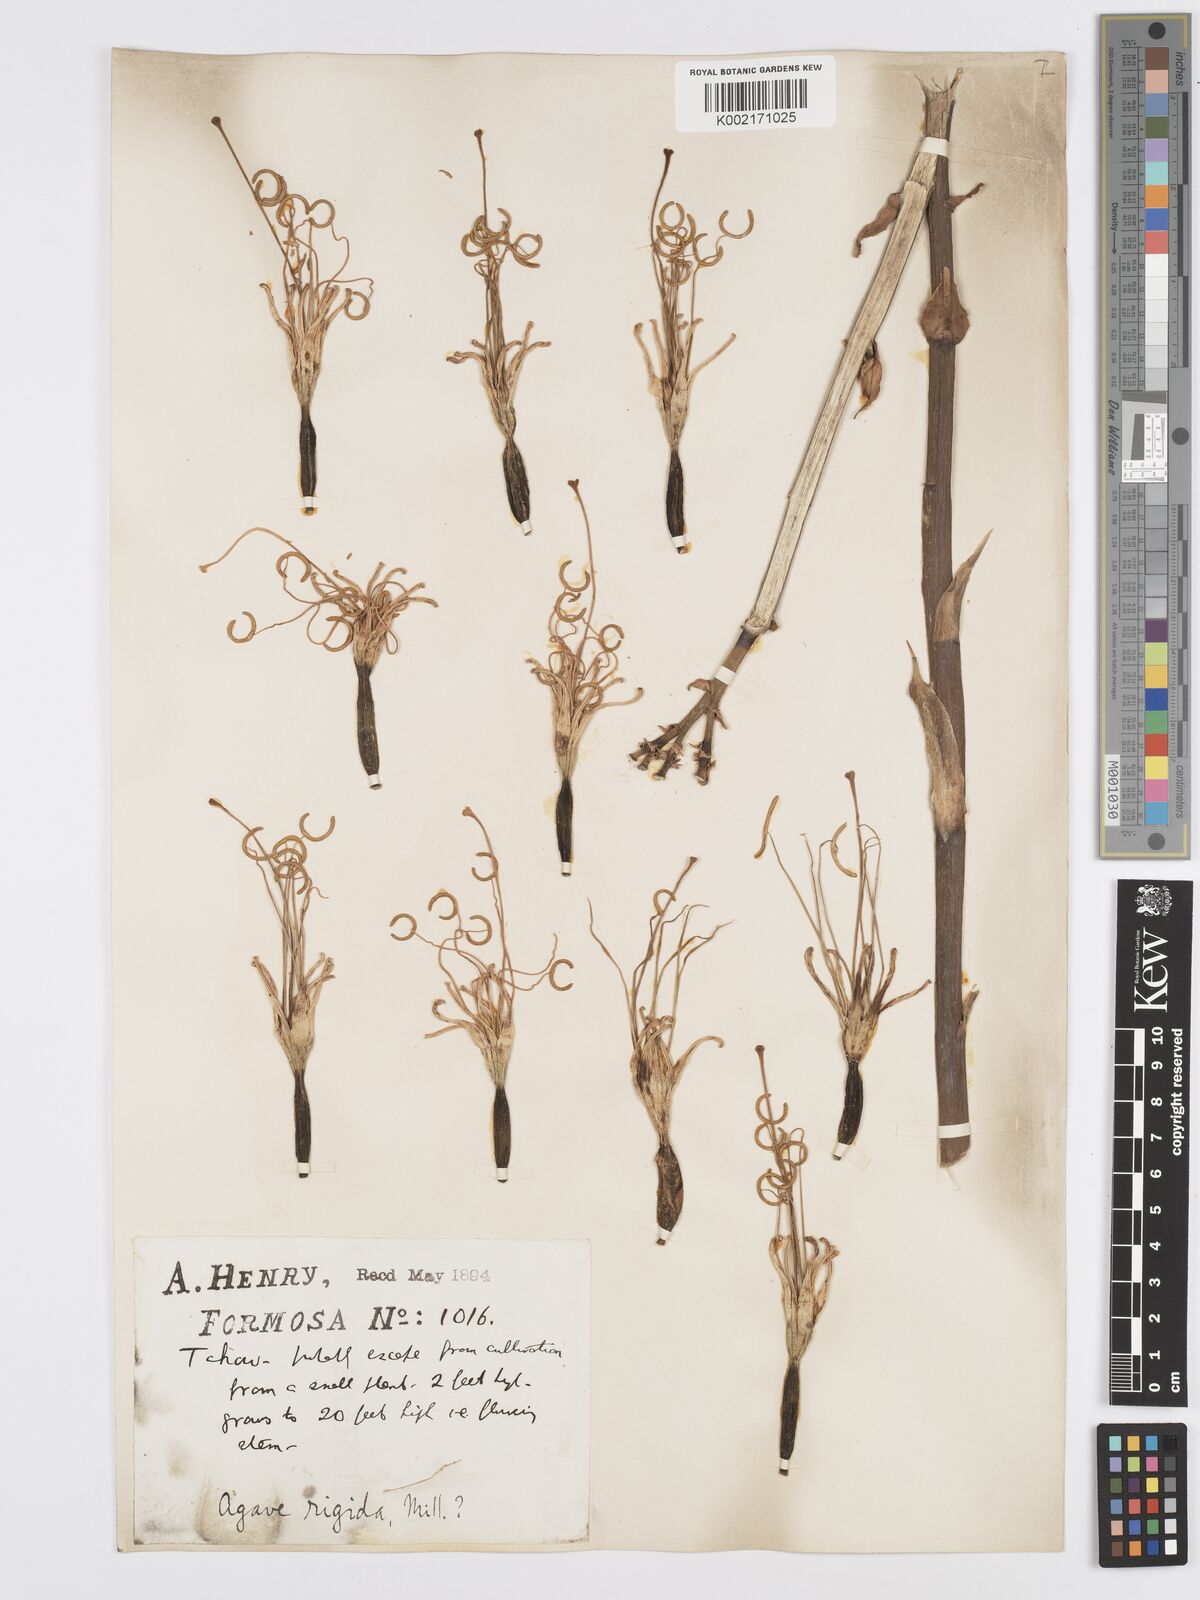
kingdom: Plantae
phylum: Tracheophyta
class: Liliopsida
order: Asparagales
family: Asparagaceae
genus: Agave
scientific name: Agave
